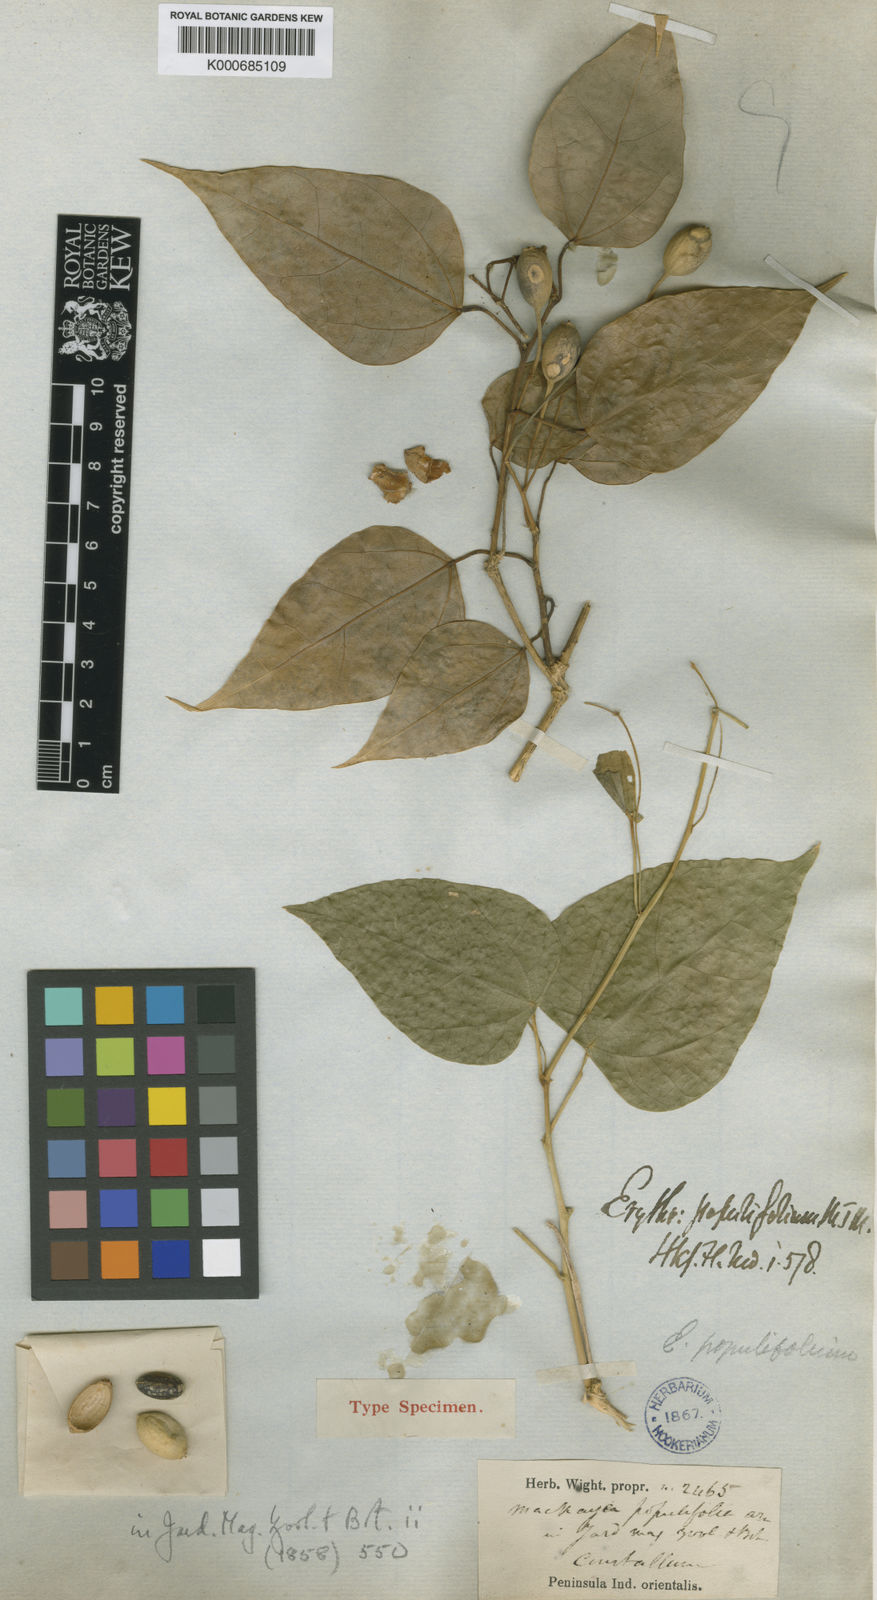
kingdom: Plantae
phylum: Tracheophyta
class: Magnoliopsida
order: Santalales
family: Erythropalaceae
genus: Erythropalum
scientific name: Erythropalum scandens
